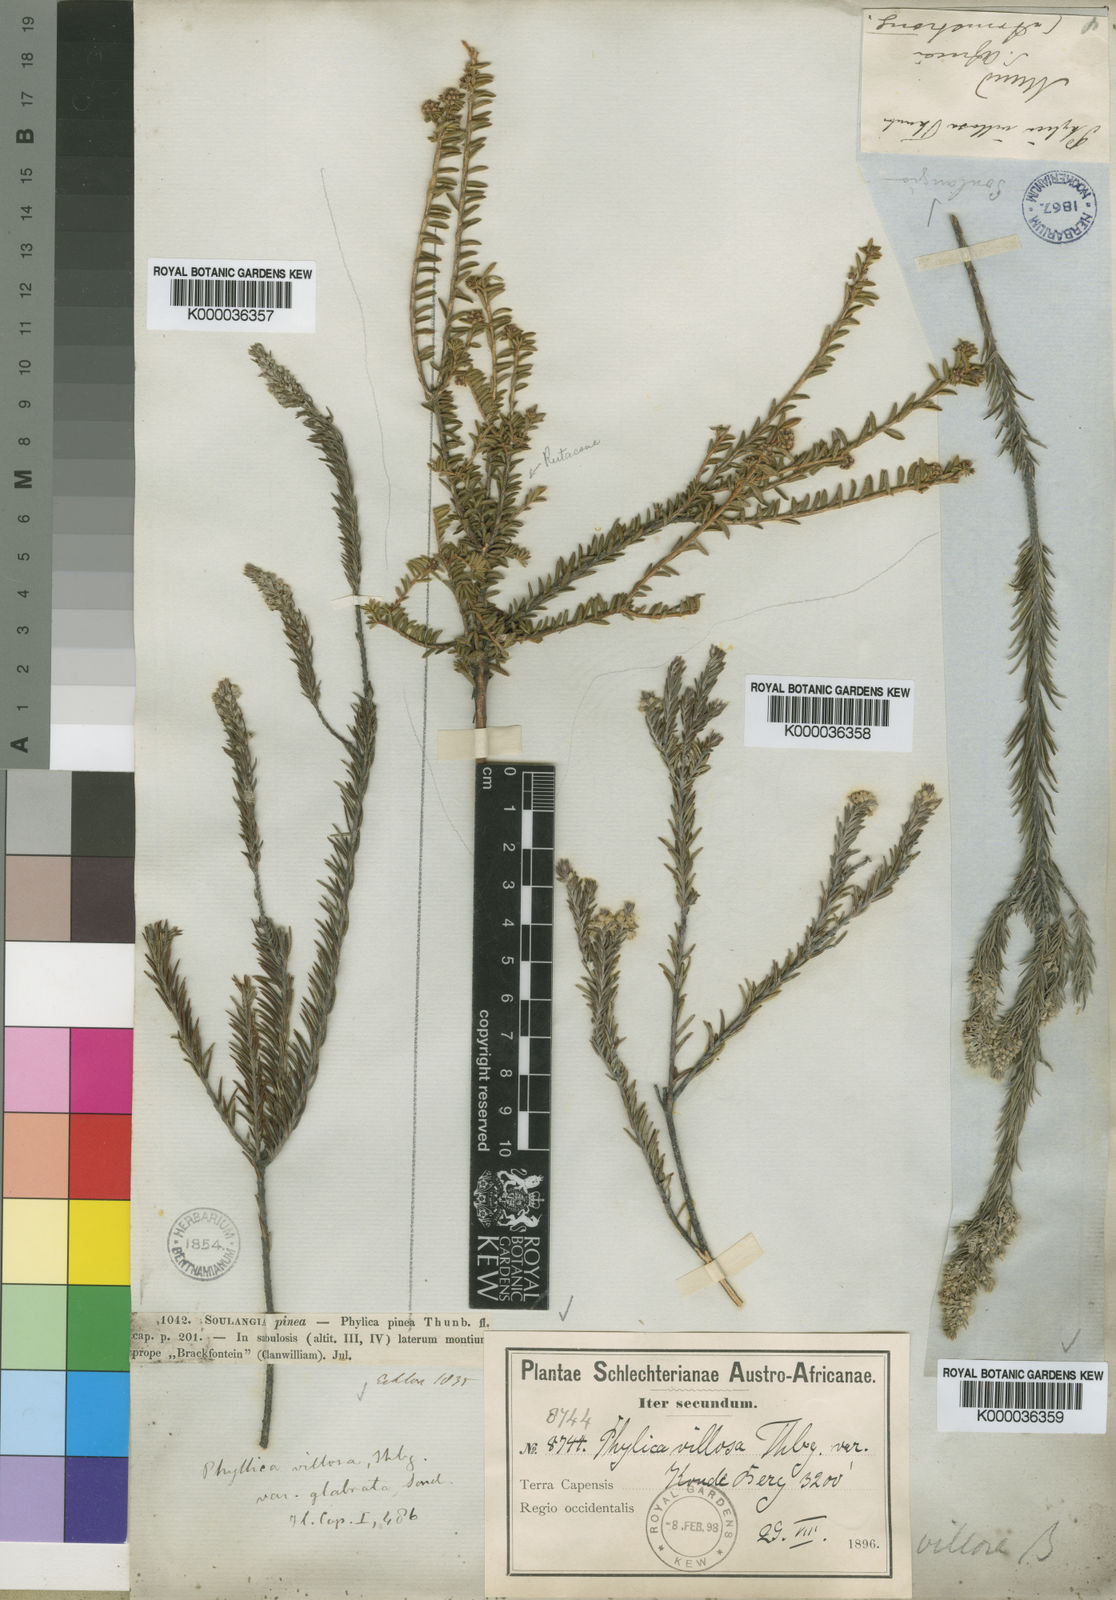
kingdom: Plantae
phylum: Tracheophyta
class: Magnoliopsida
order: Rosales
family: Rhamnaceae
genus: Phylica
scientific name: Phylica villosa
